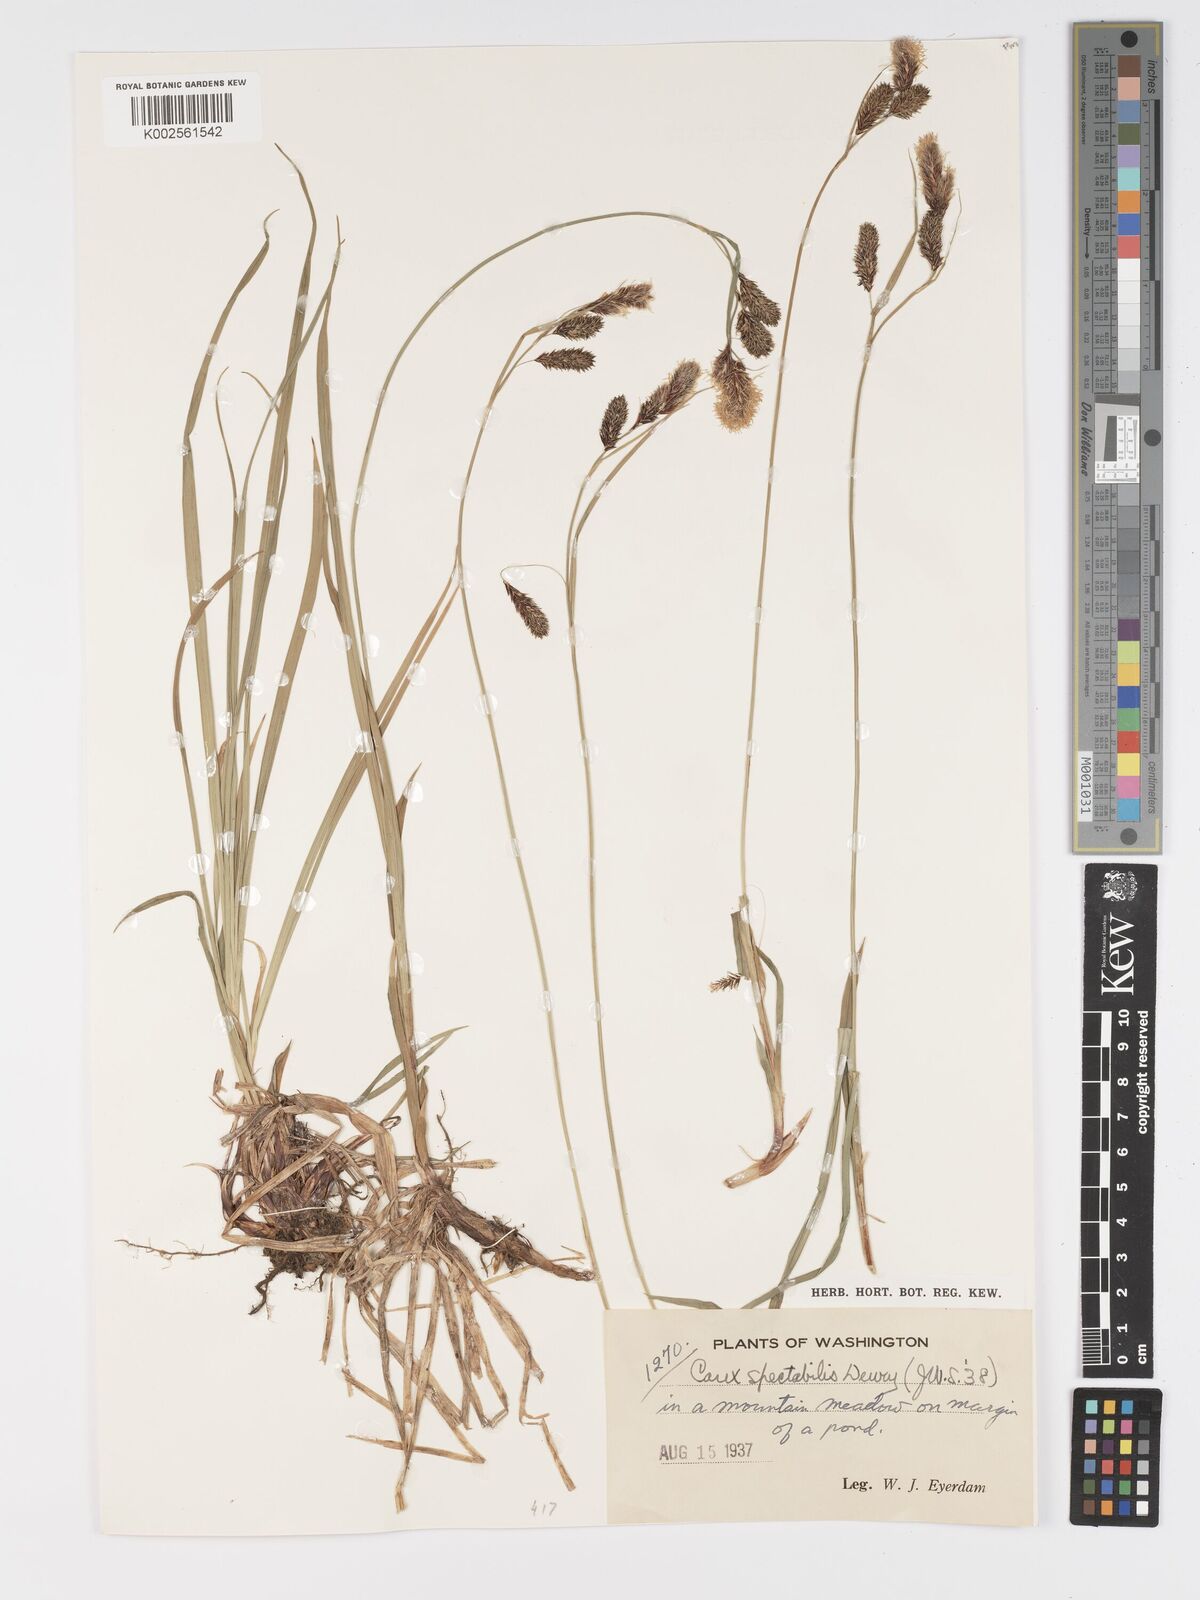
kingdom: Plantae
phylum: Tracheophyta
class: Liliopsida
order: Poales
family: Cyperaceae
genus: Carex
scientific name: Carex spectabilis
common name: Northwestern showy sedge
